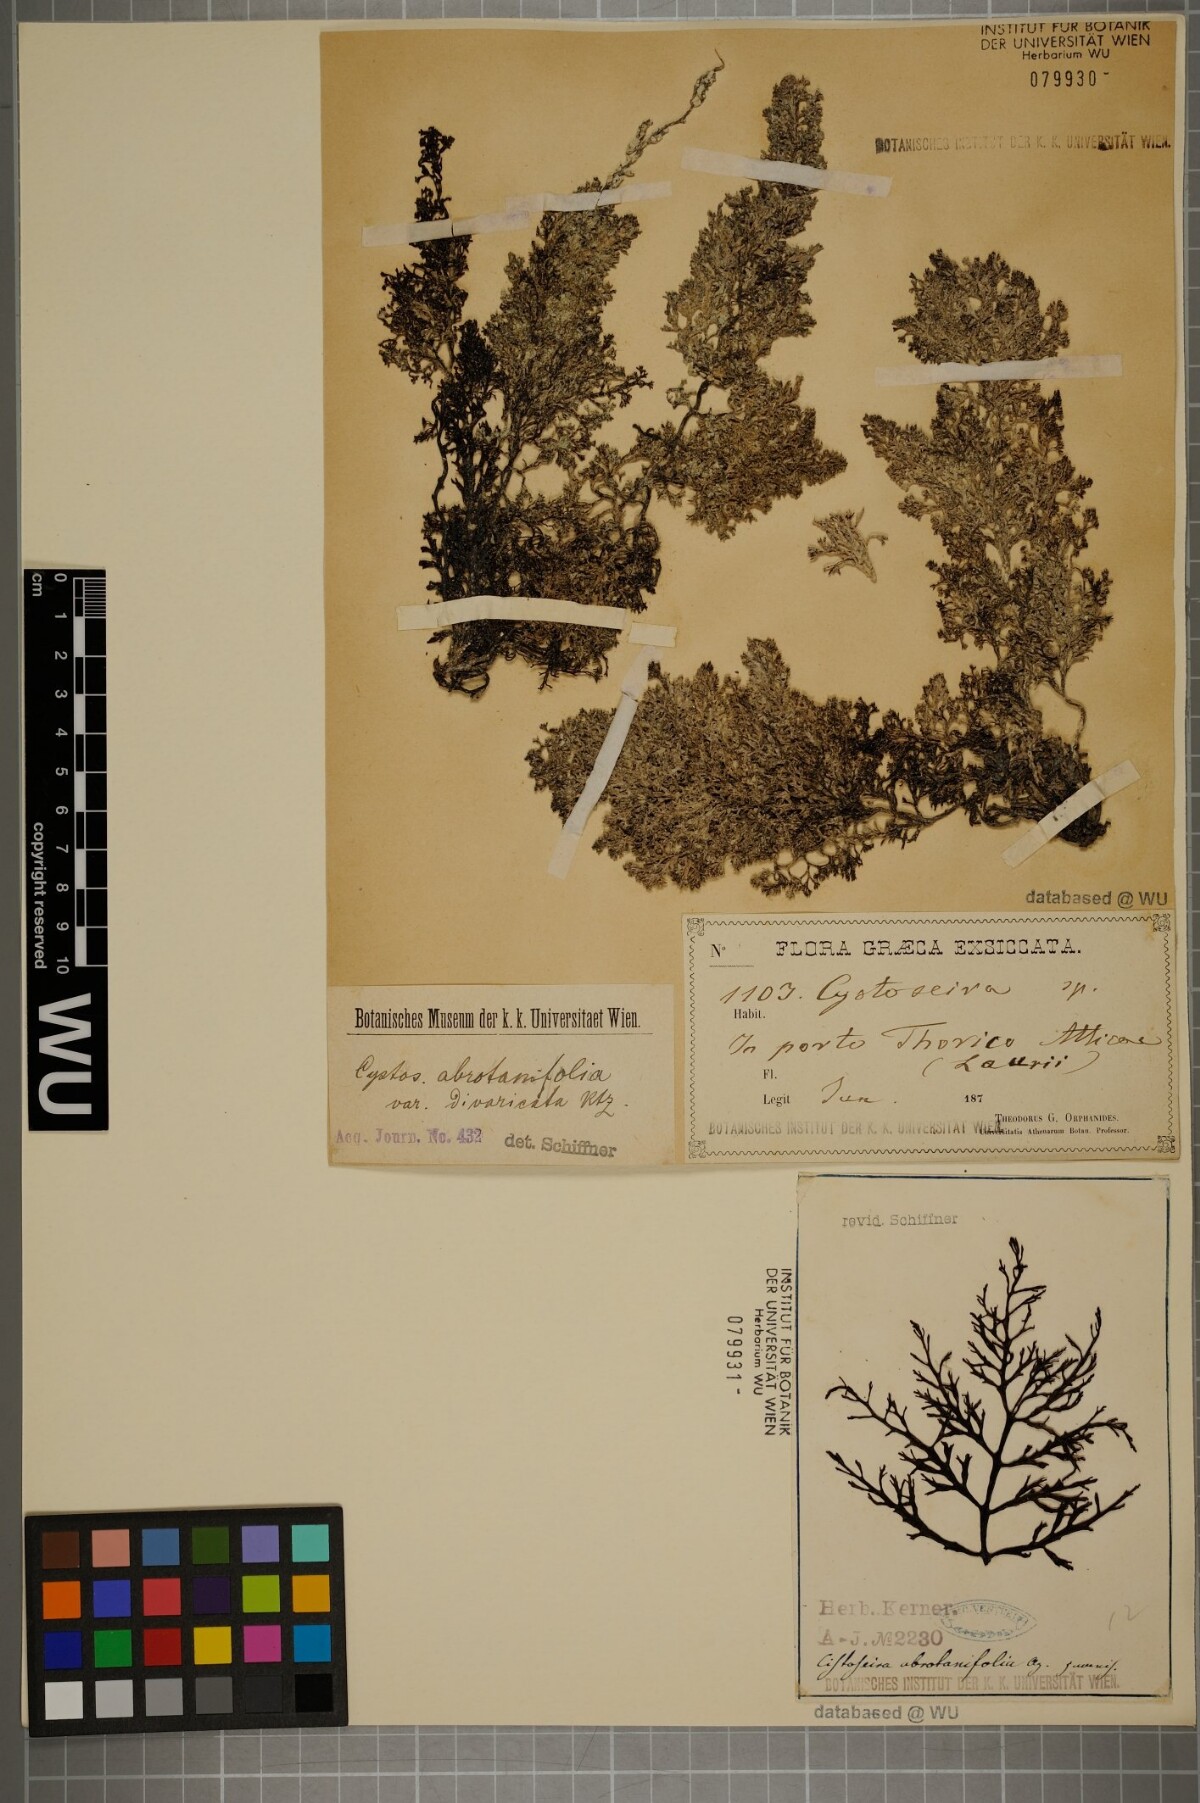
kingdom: Chromista
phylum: Ochrophyta
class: Phaeophyceae
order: Fucales
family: Sargassaceae
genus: Cystoseira
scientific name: Cystoseira foeniculacea
